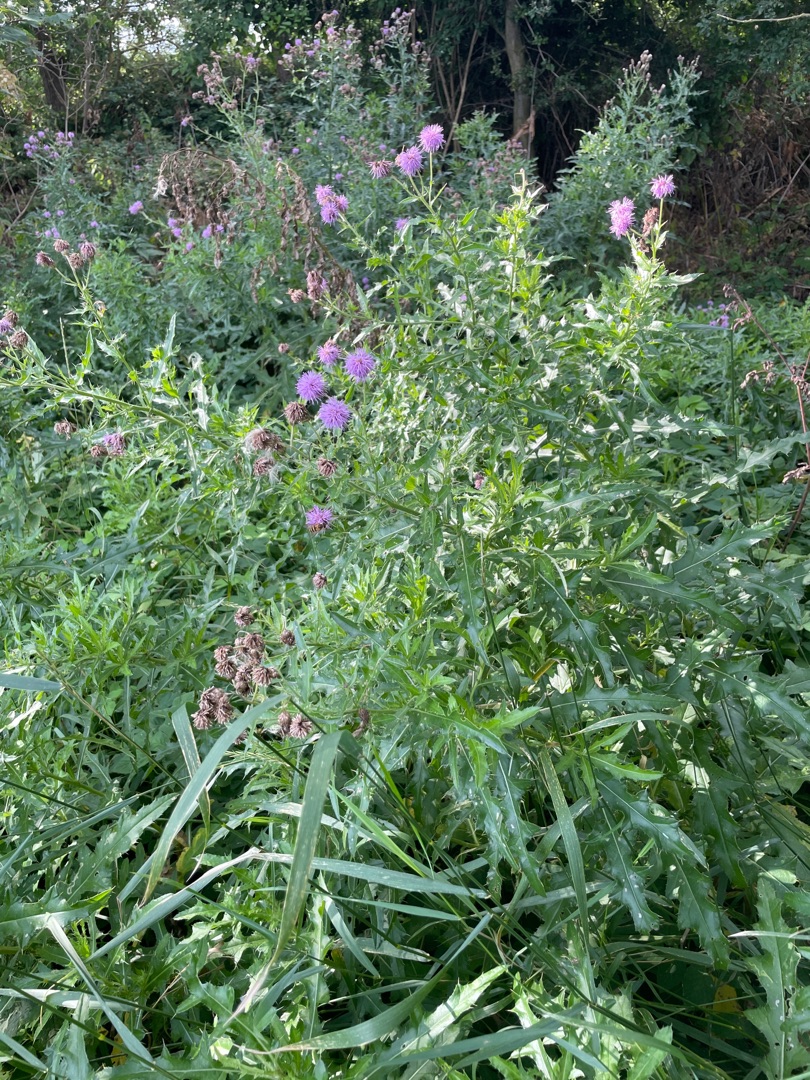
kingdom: Plantae
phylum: Tracheophyta
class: Magnoliopsida
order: Asterales
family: Asteraceae
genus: Cirsium
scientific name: Cirsium arvense
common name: Ager-tidsel
